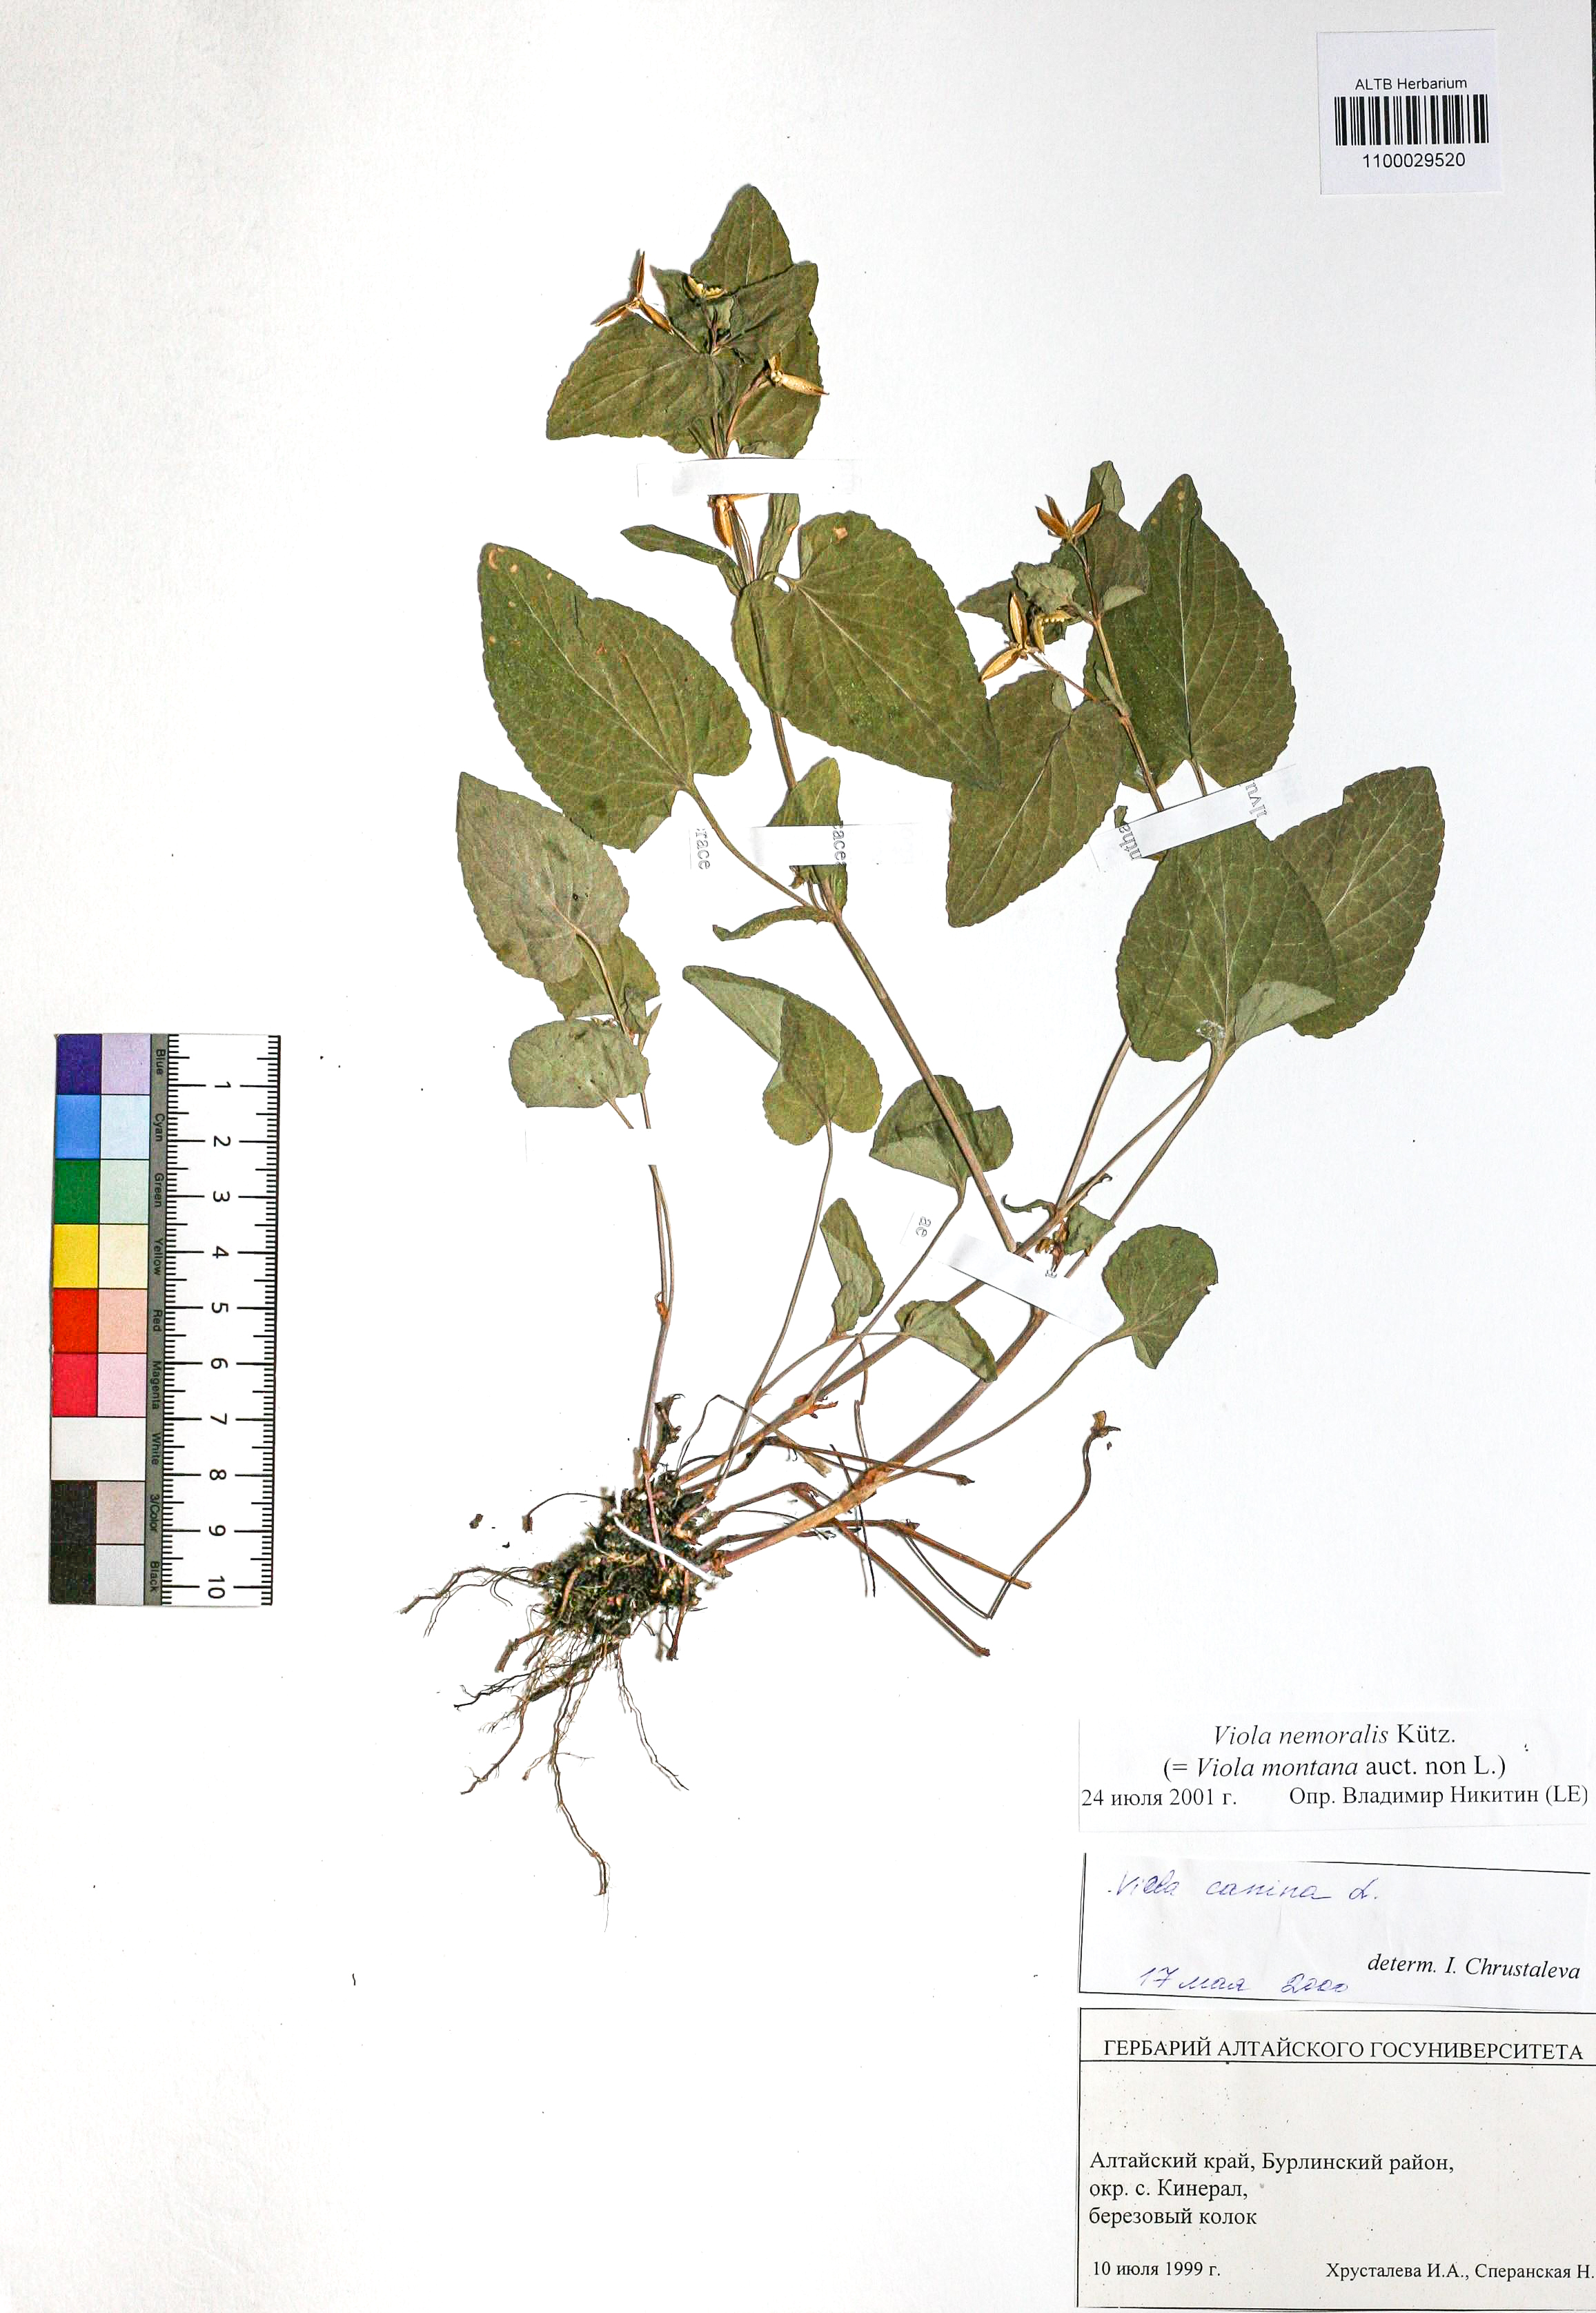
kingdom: Plantae
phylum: Tracheophyta
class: Magnoliopsida
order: Malpighiales
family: Violaceae
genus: Viola
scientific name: Viola ruppii
